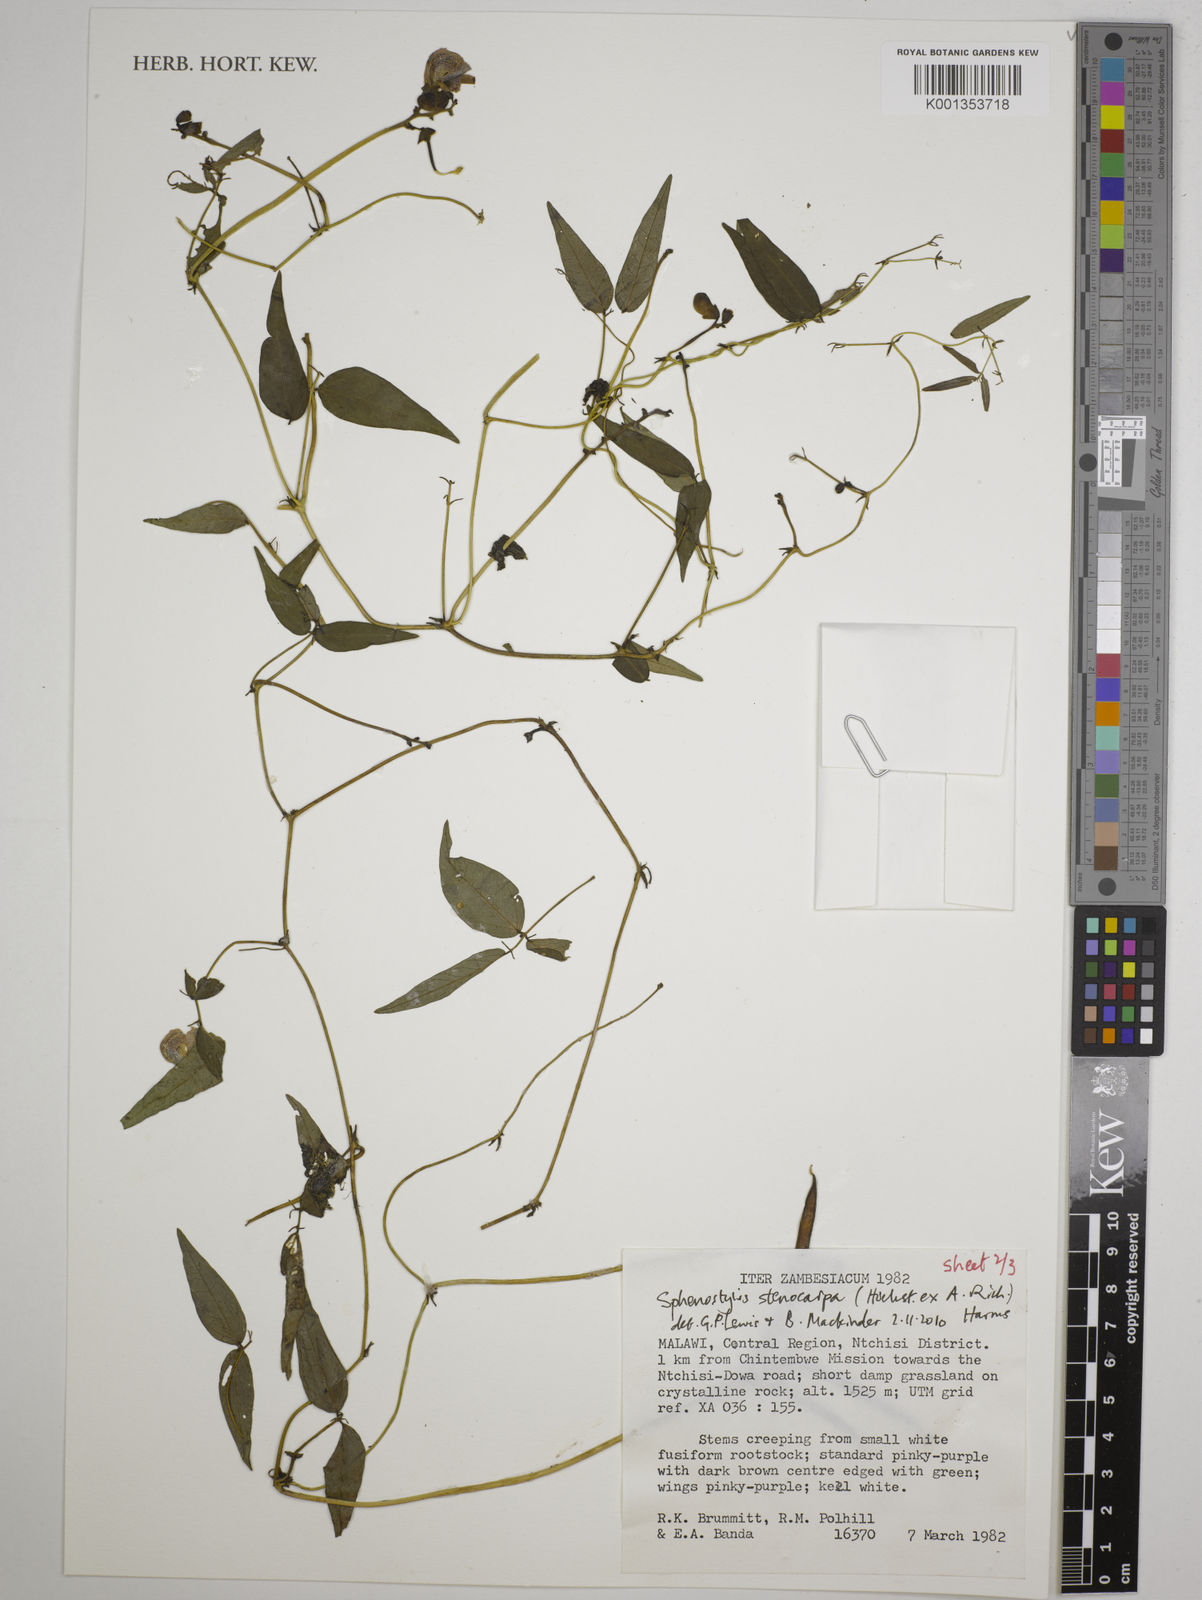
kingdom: Plantae
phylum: Tracheophyta
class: Magnoliopsida
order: Fabales
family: Fabaceae
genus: Sphenostylis
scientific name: Sphenostylis stenocarpa
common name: Yam-pea
